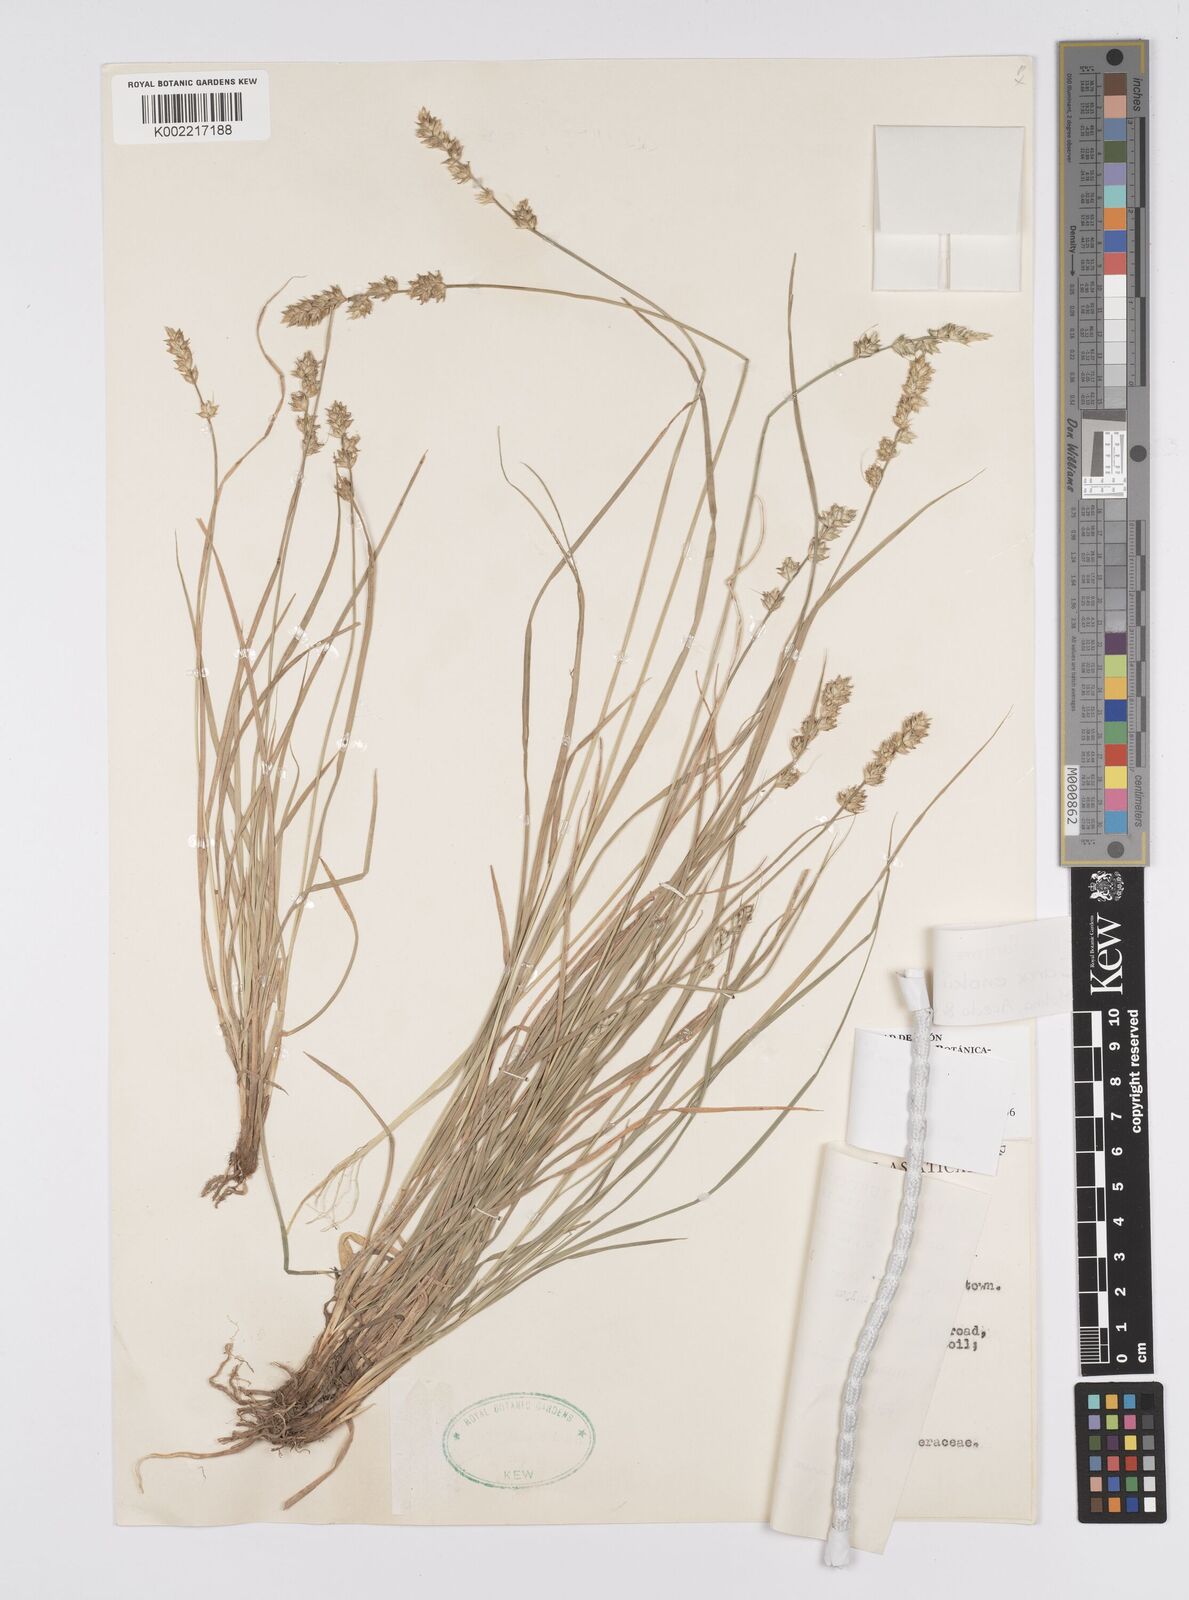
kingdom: Plantae
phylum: Tracheophyta
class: Liliopsida
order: Poales
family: Cyperaceae
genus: Carex
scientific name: Carex enokii
